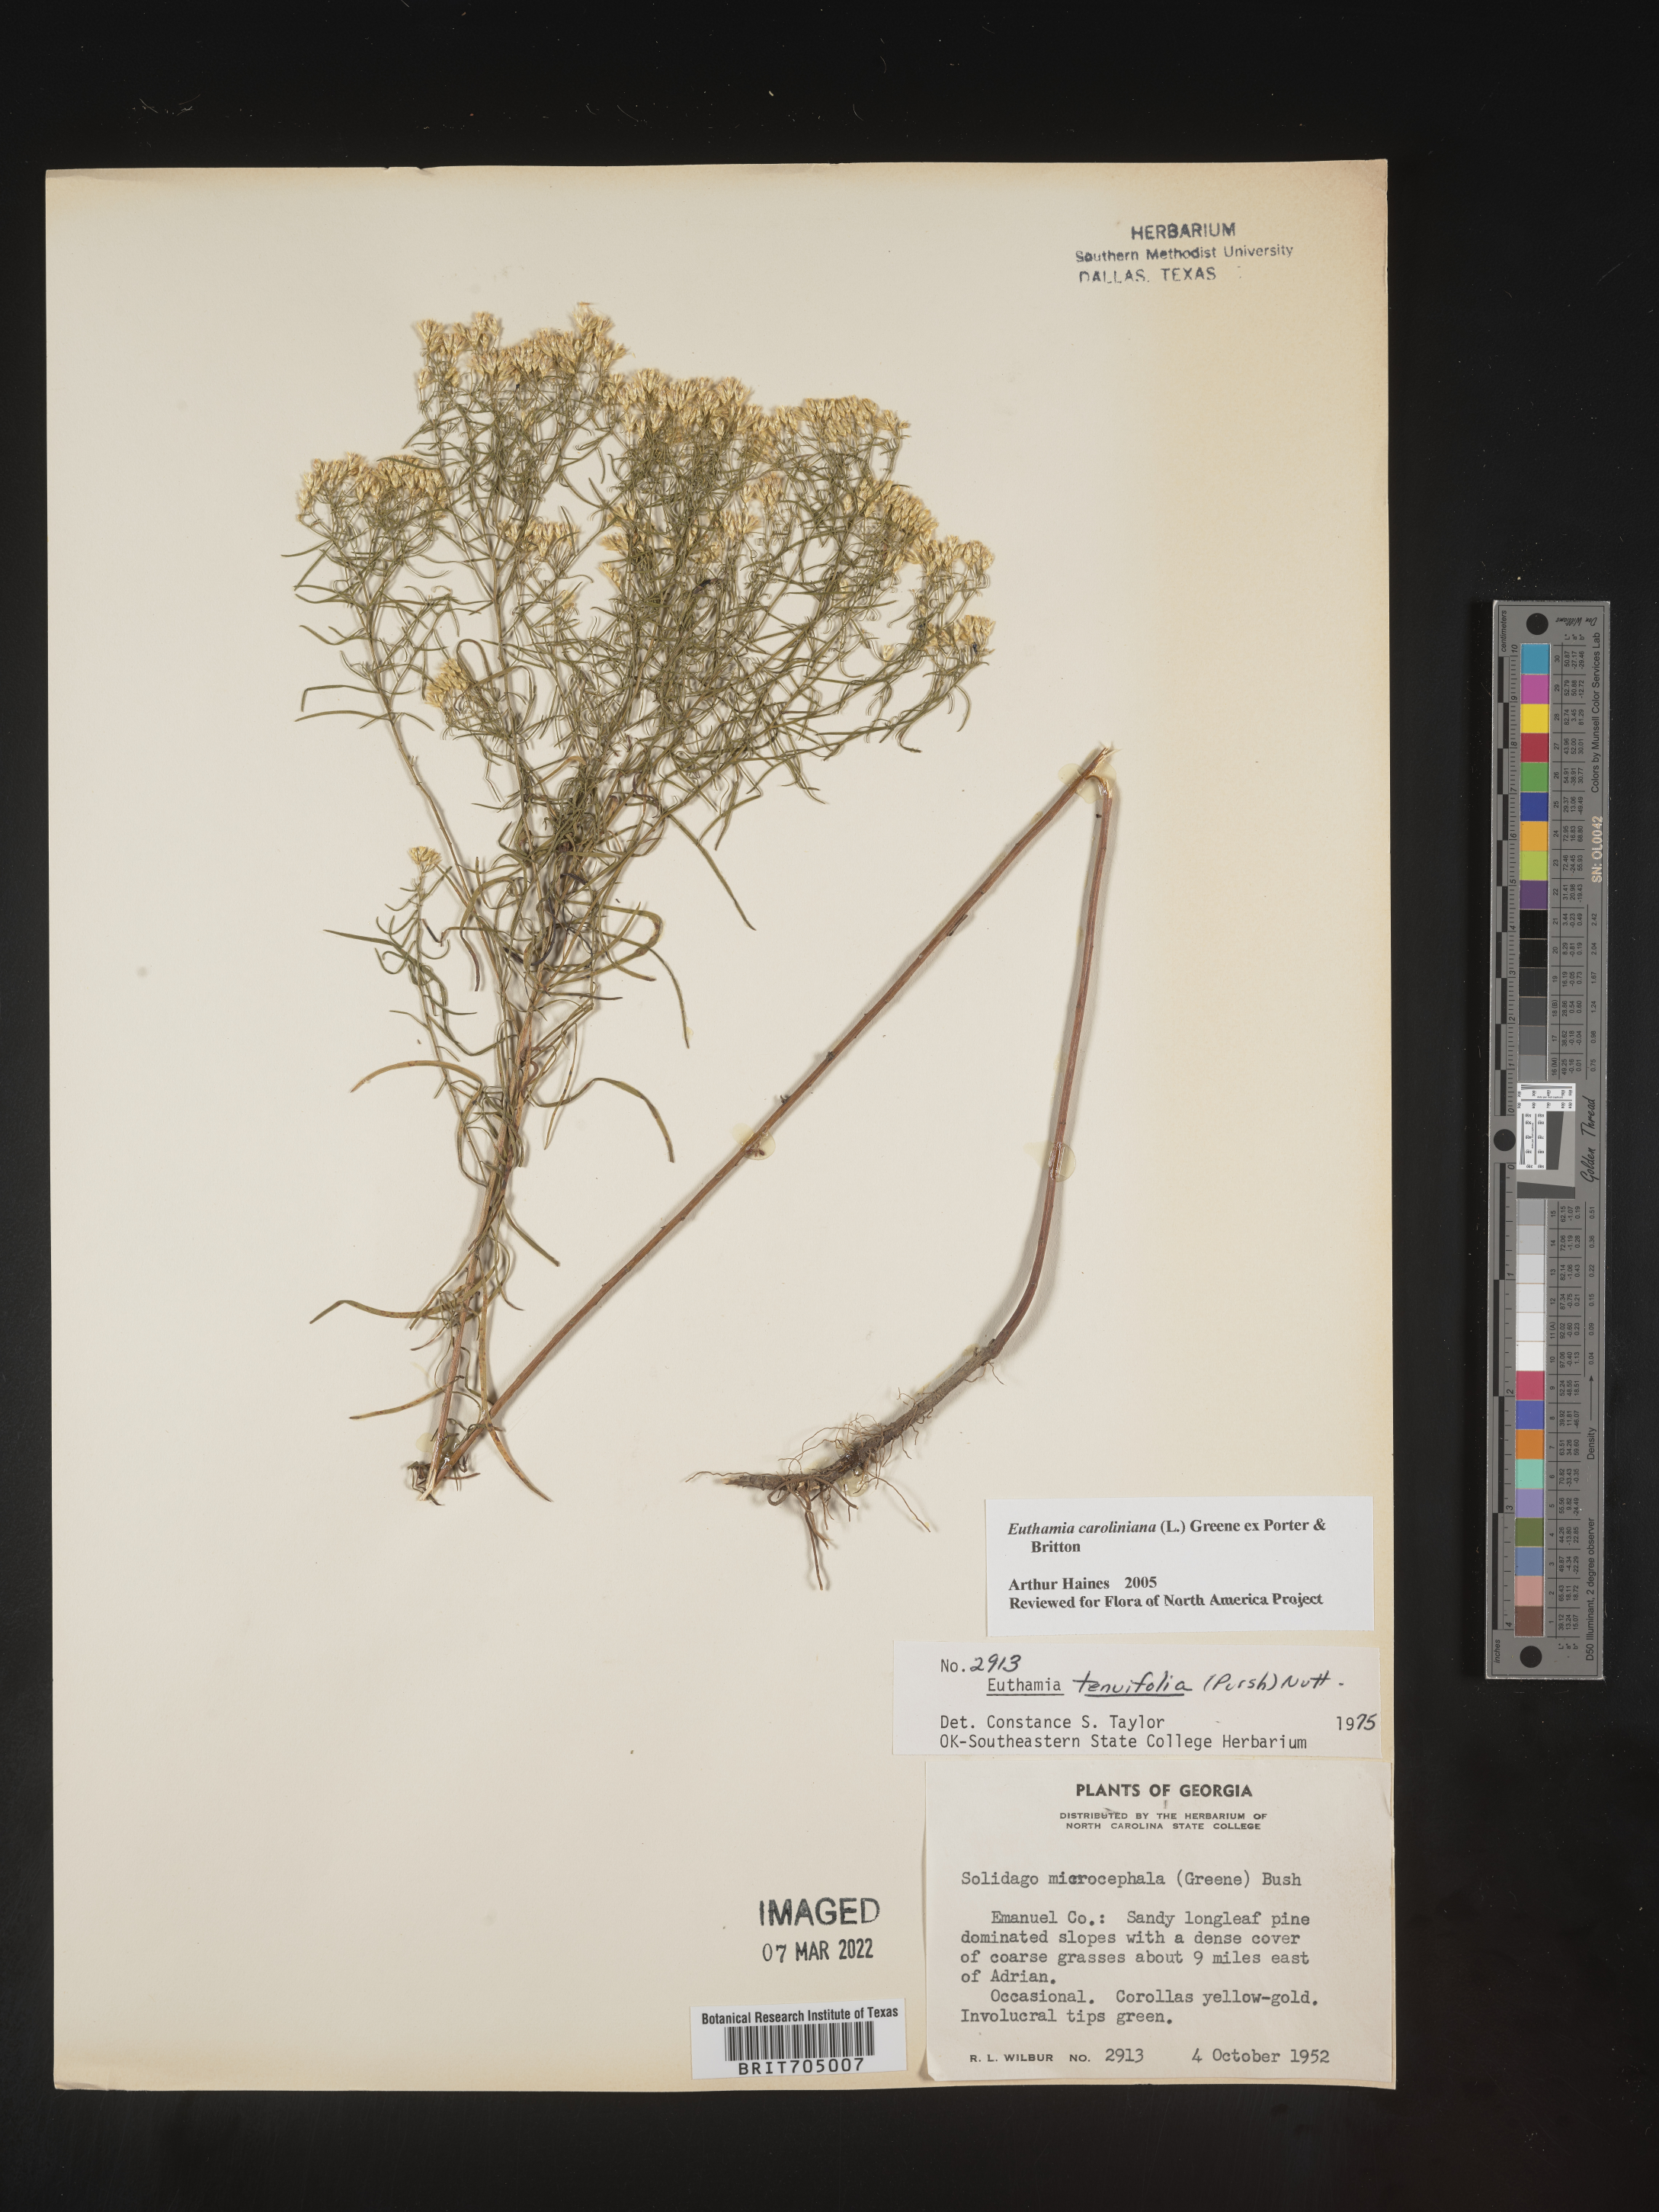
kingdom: Plantae
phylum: Tracheophyta
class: Magnoliopsida
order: Asterales
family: Asteraceae
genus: Euthamia
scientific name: Euthamia caroliniana
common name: Coastal plain goldentop
